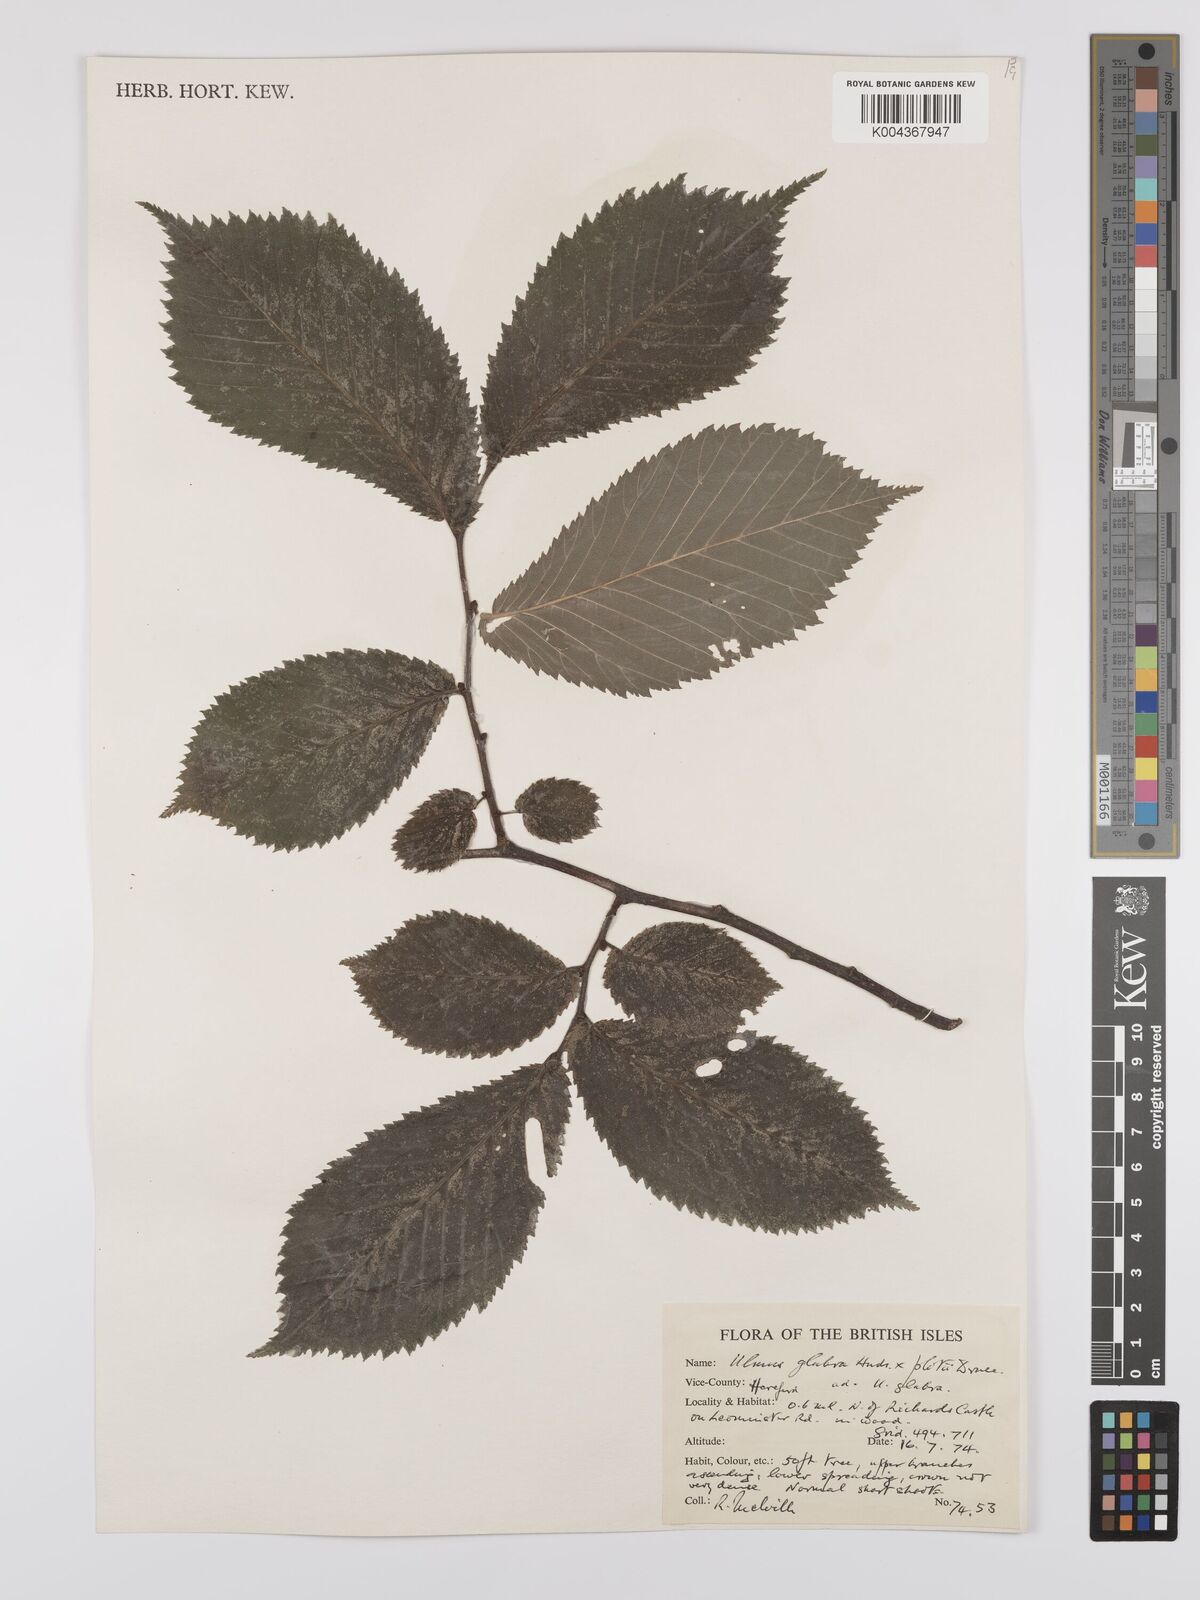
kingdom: Plantae
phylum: Tracheophyta
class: Magnoliopsida
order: Rosales
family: Ulmaceae
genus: Ulmus
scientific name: Ulmus glabra
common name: Wych elm
